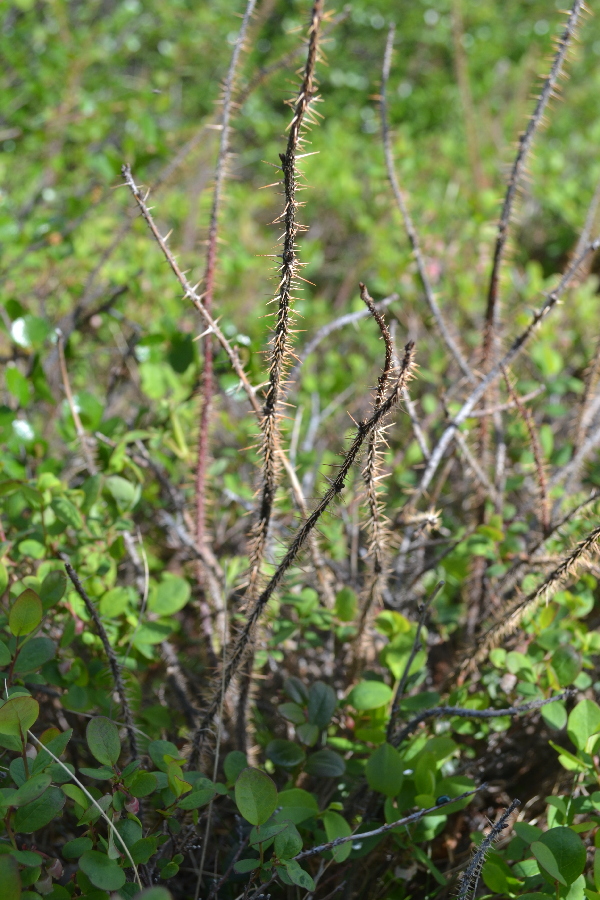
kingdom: Plantae
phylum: Tracheophyta
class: Magnoliopsida
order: Rosales
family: Rosaceae
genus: Rosa
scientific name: Rosa acicularis
